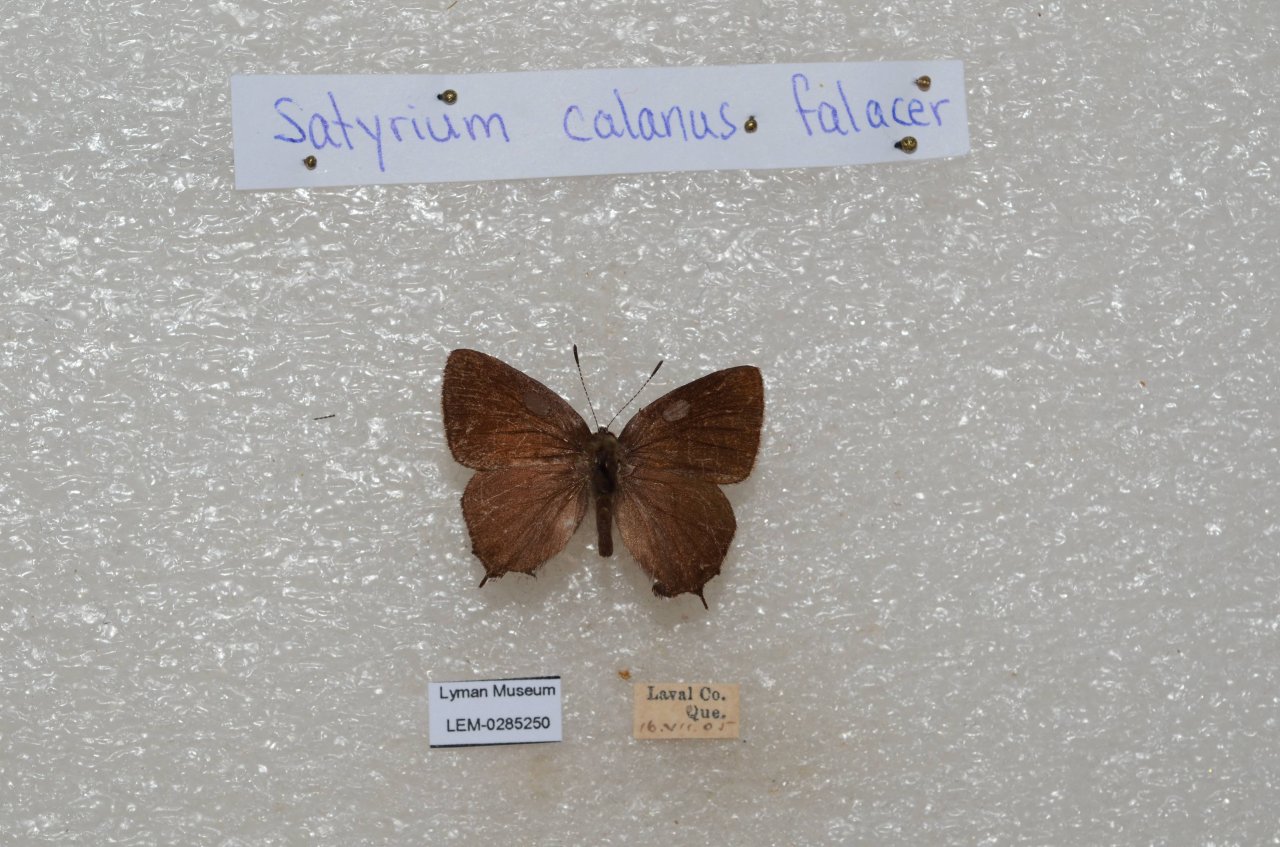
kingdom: Animalia
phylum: Arthropoda
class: Insecta
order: Lepidoptera
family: Lycaenidae
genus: Satyrium
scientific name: Satyrium calanus
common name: Banded Hairstreak
